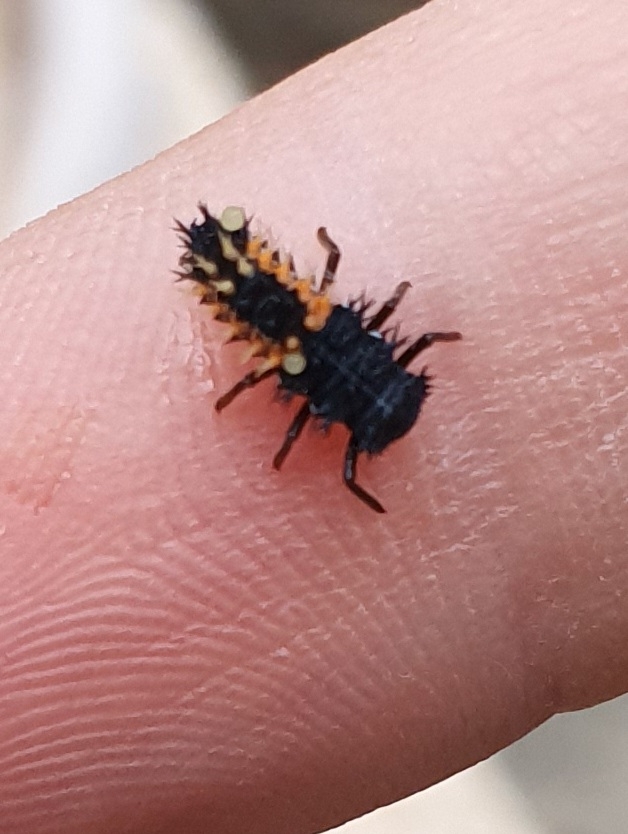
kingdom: Animalia
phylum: Arthropoda
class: Insecta
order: Coleoptera
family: Coccinellidae
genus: Harmonia
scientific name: Harmonia axyridis
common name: Harlekinmariehøne
